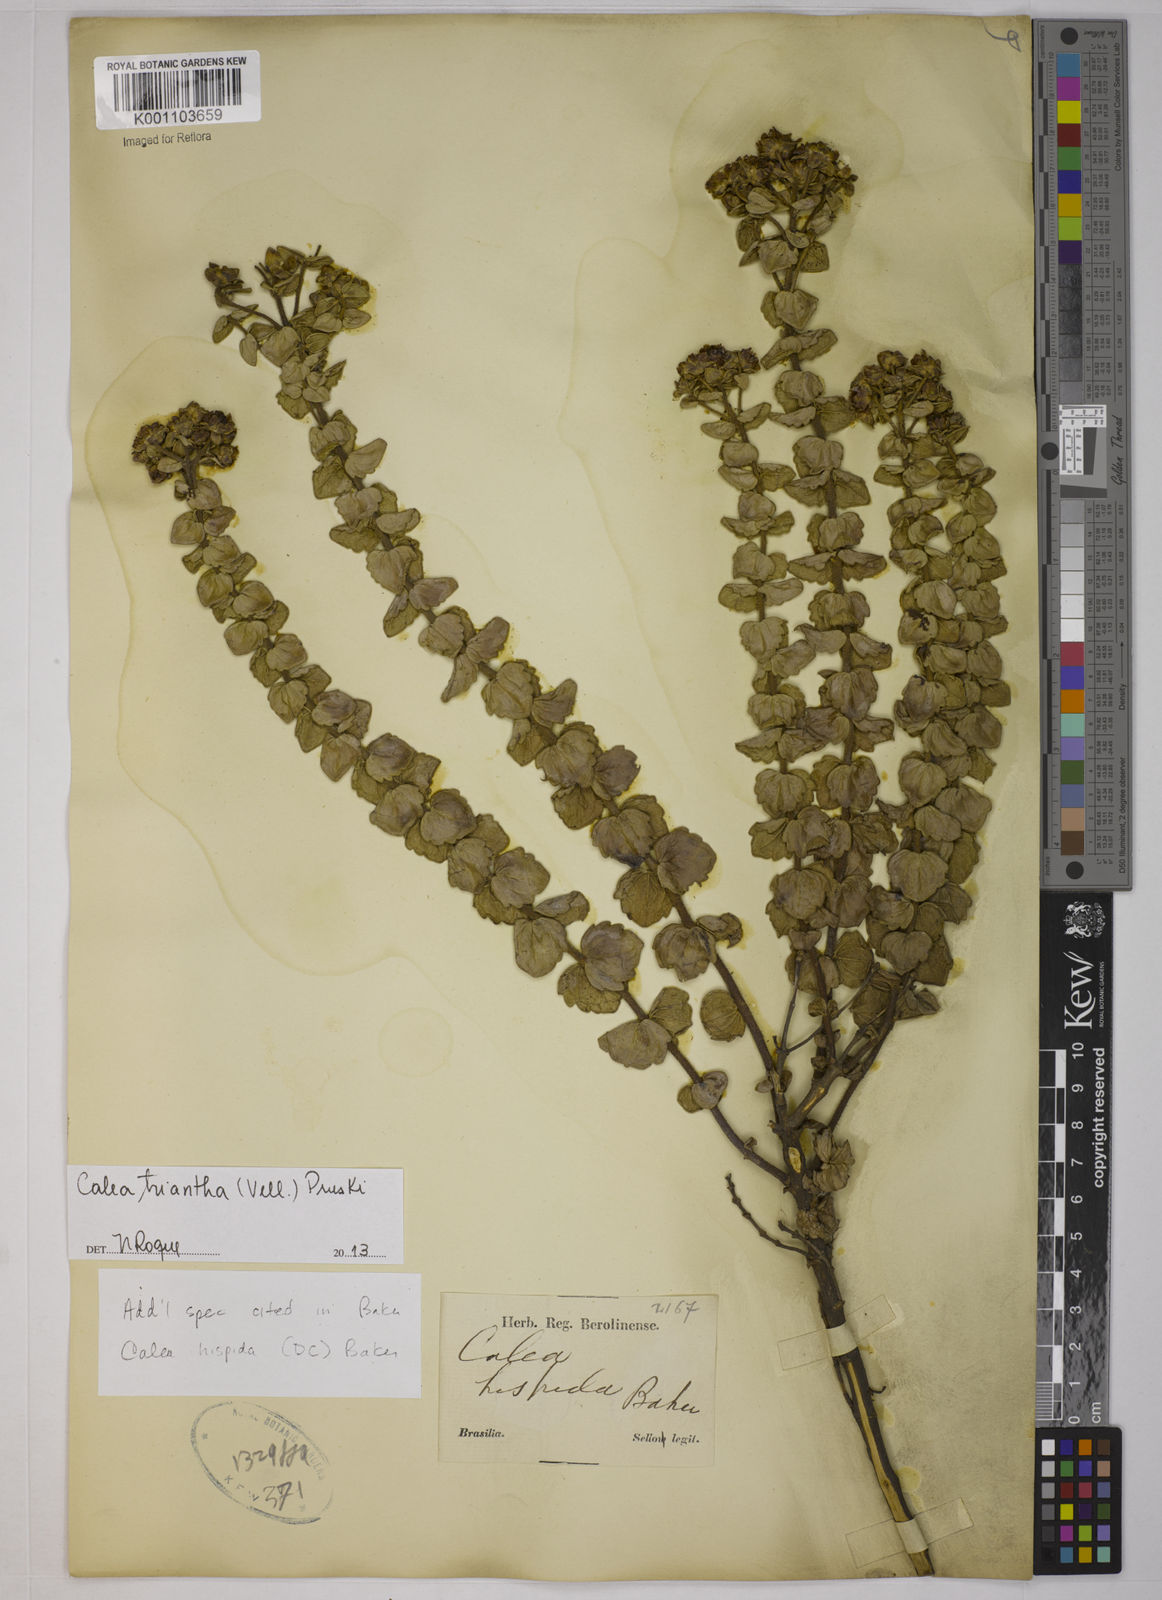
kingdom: Plantae
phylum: Tracheophyta
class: Magnoliopsida
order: Asterales
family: Asteraceae
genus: Calea
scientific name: Calea triantha
